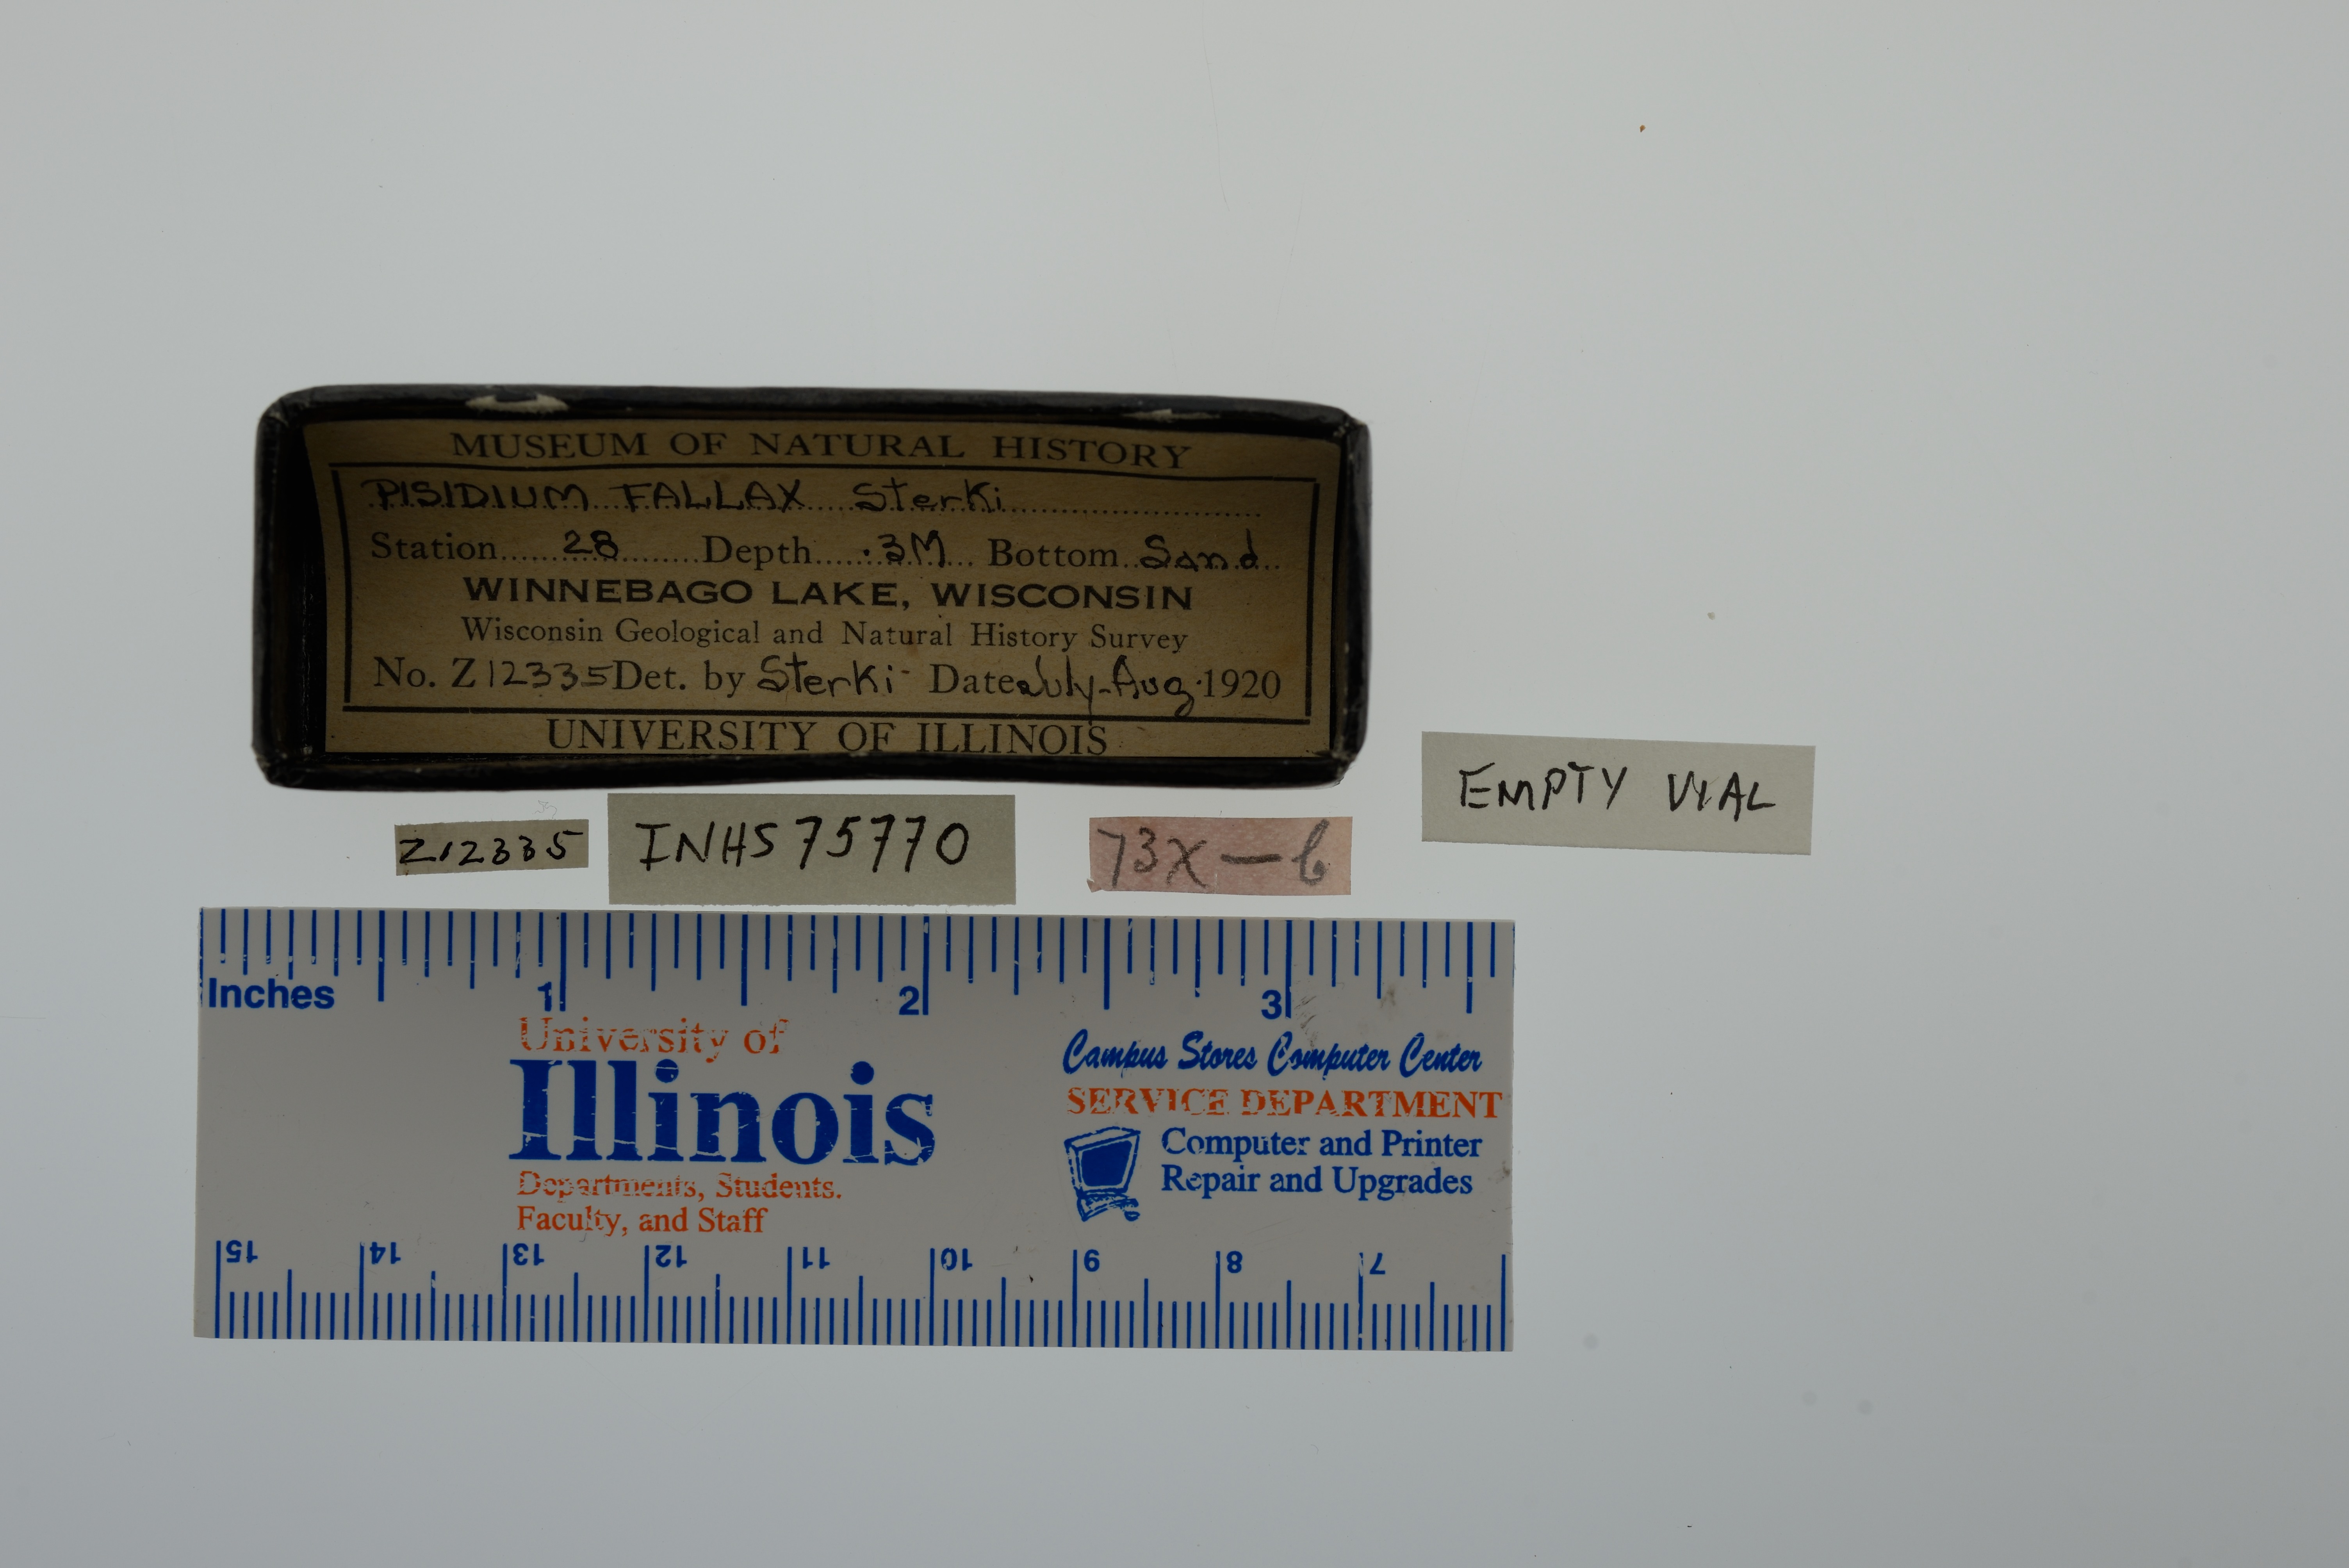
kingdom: Animalia
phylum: Mollusca
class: Bivalvia
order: Sphaeriida
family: Sphaeriidae
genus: Euglesa
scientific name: Euglesa fallax
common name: River peaclam
